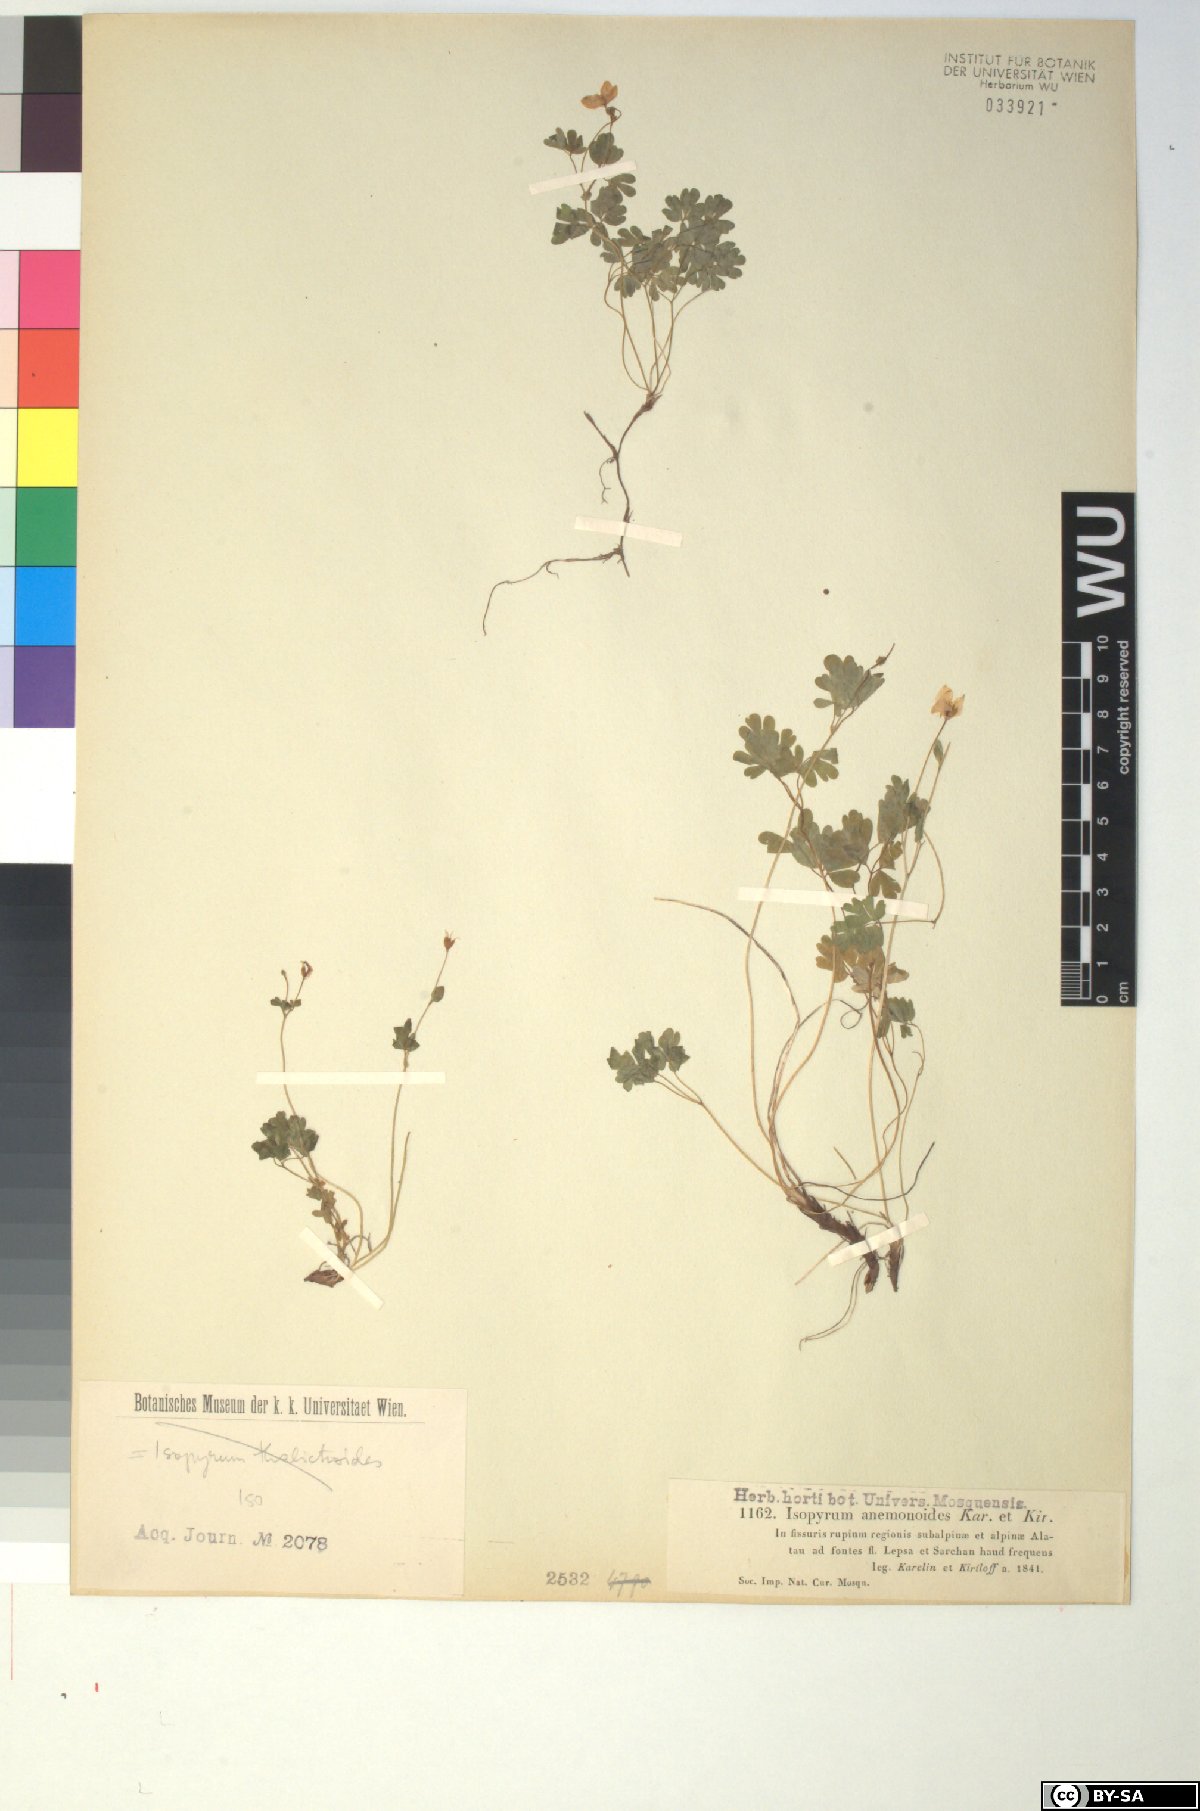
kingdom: Plantae
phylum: Tracheophyta
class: Magnoliopsida
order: Ranunculales
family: Ranunculaceae
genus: Isopyrum
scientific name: Isopyrum anemonoides
